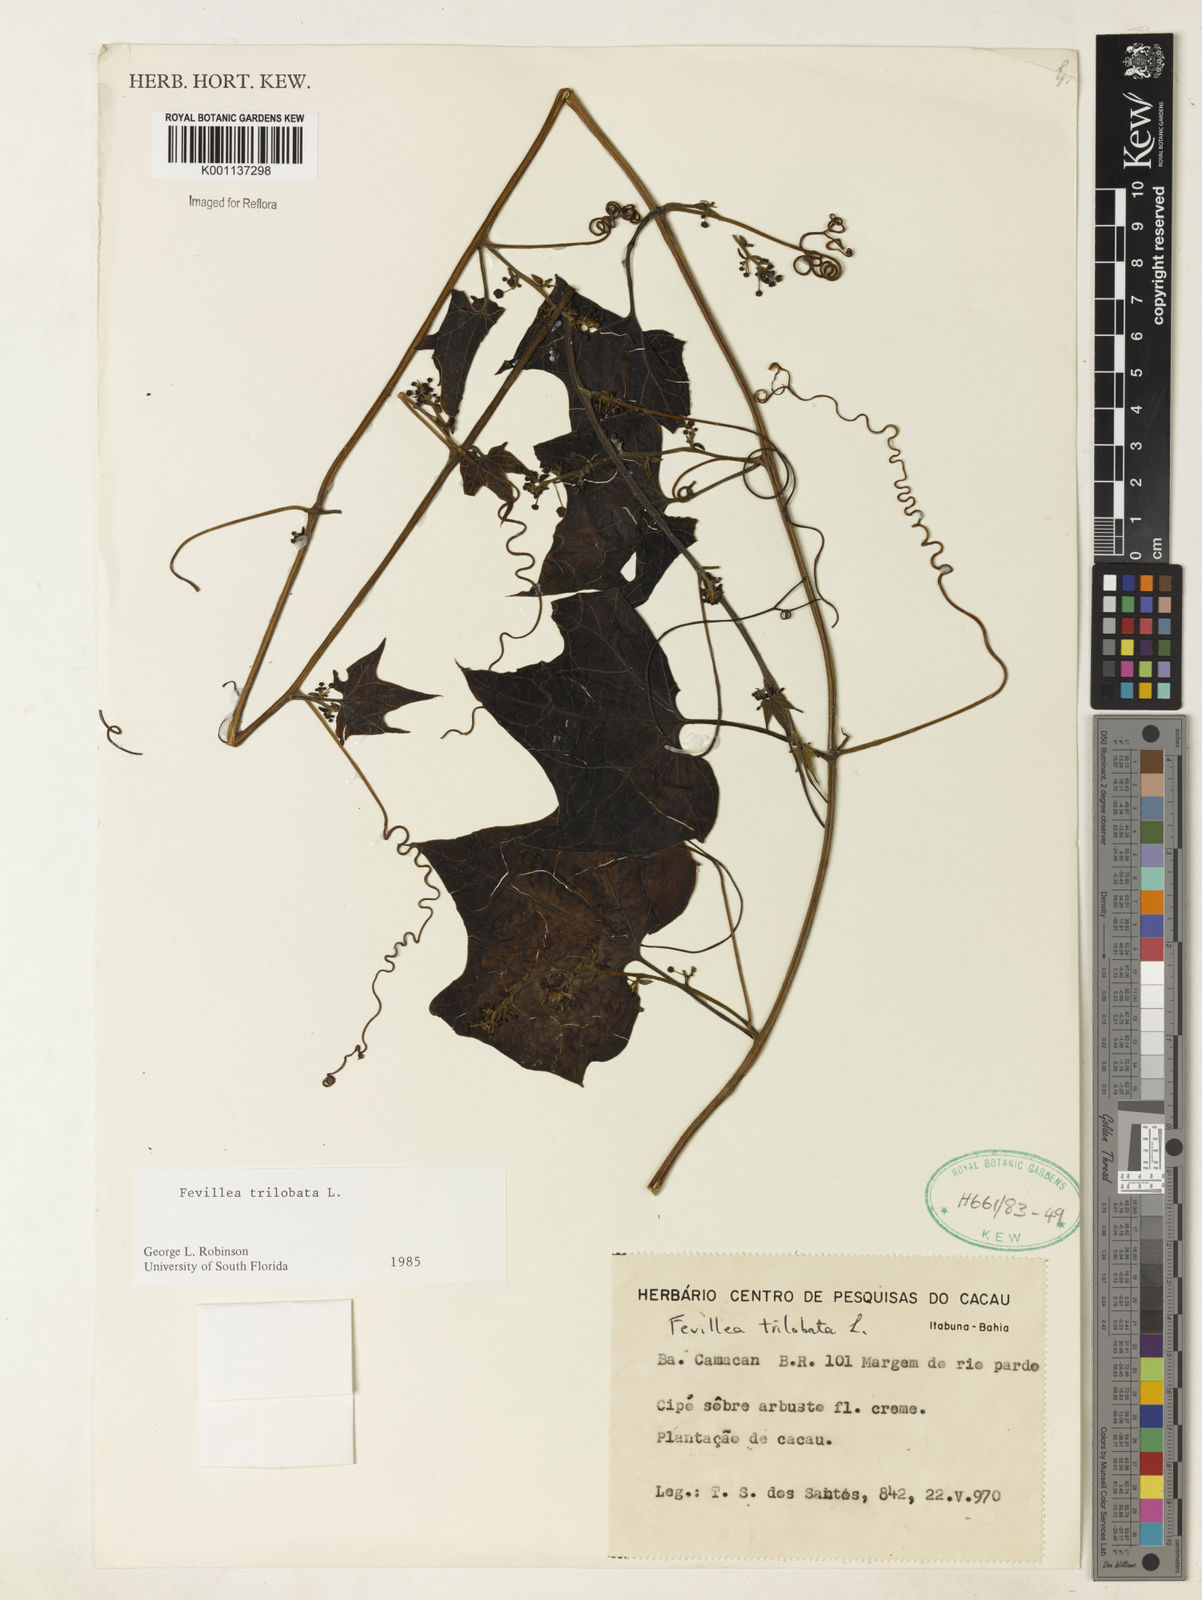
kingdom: Plantae
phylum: Tracheophyta
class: Magnoliopsida
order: Cucurbitales
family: Cucurbitaceae
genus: Fevillea
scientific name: Fevillea trilobata
